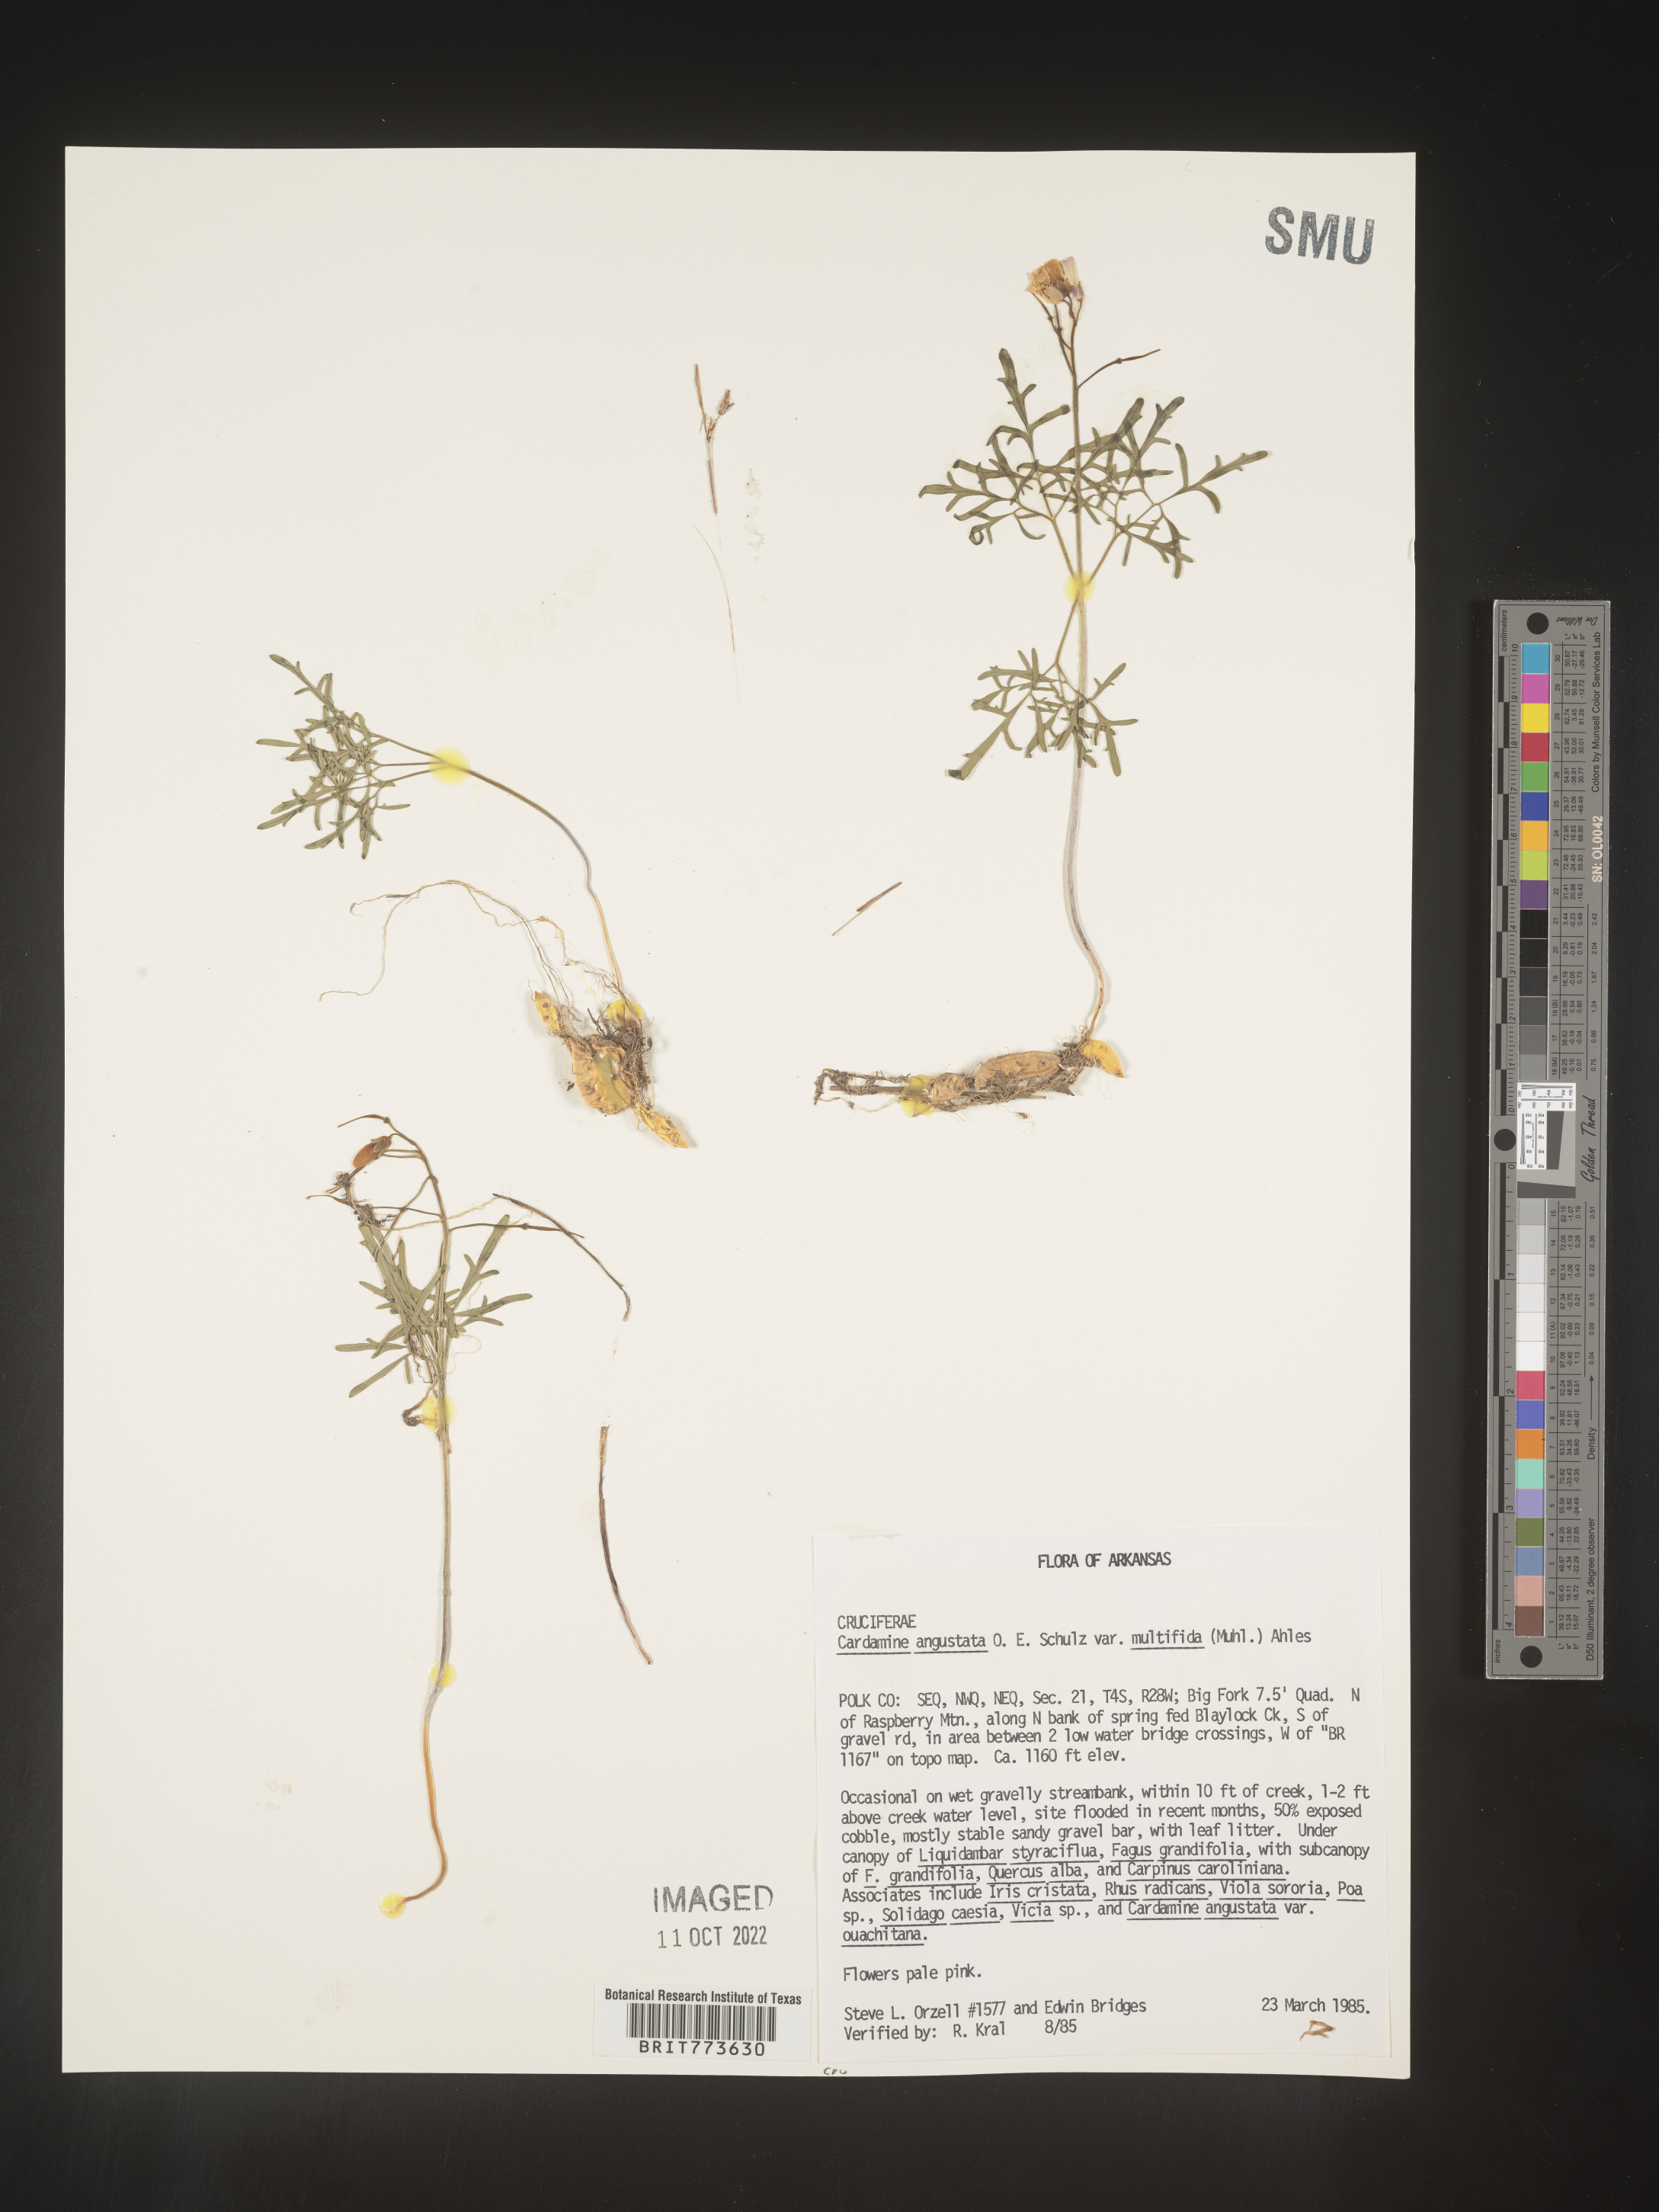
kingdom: Plantae
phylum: Tracheophyta
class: Magnoliopsida
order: Brassicales
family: Brassicaceae
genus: Cardamine
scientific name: Cardamine
